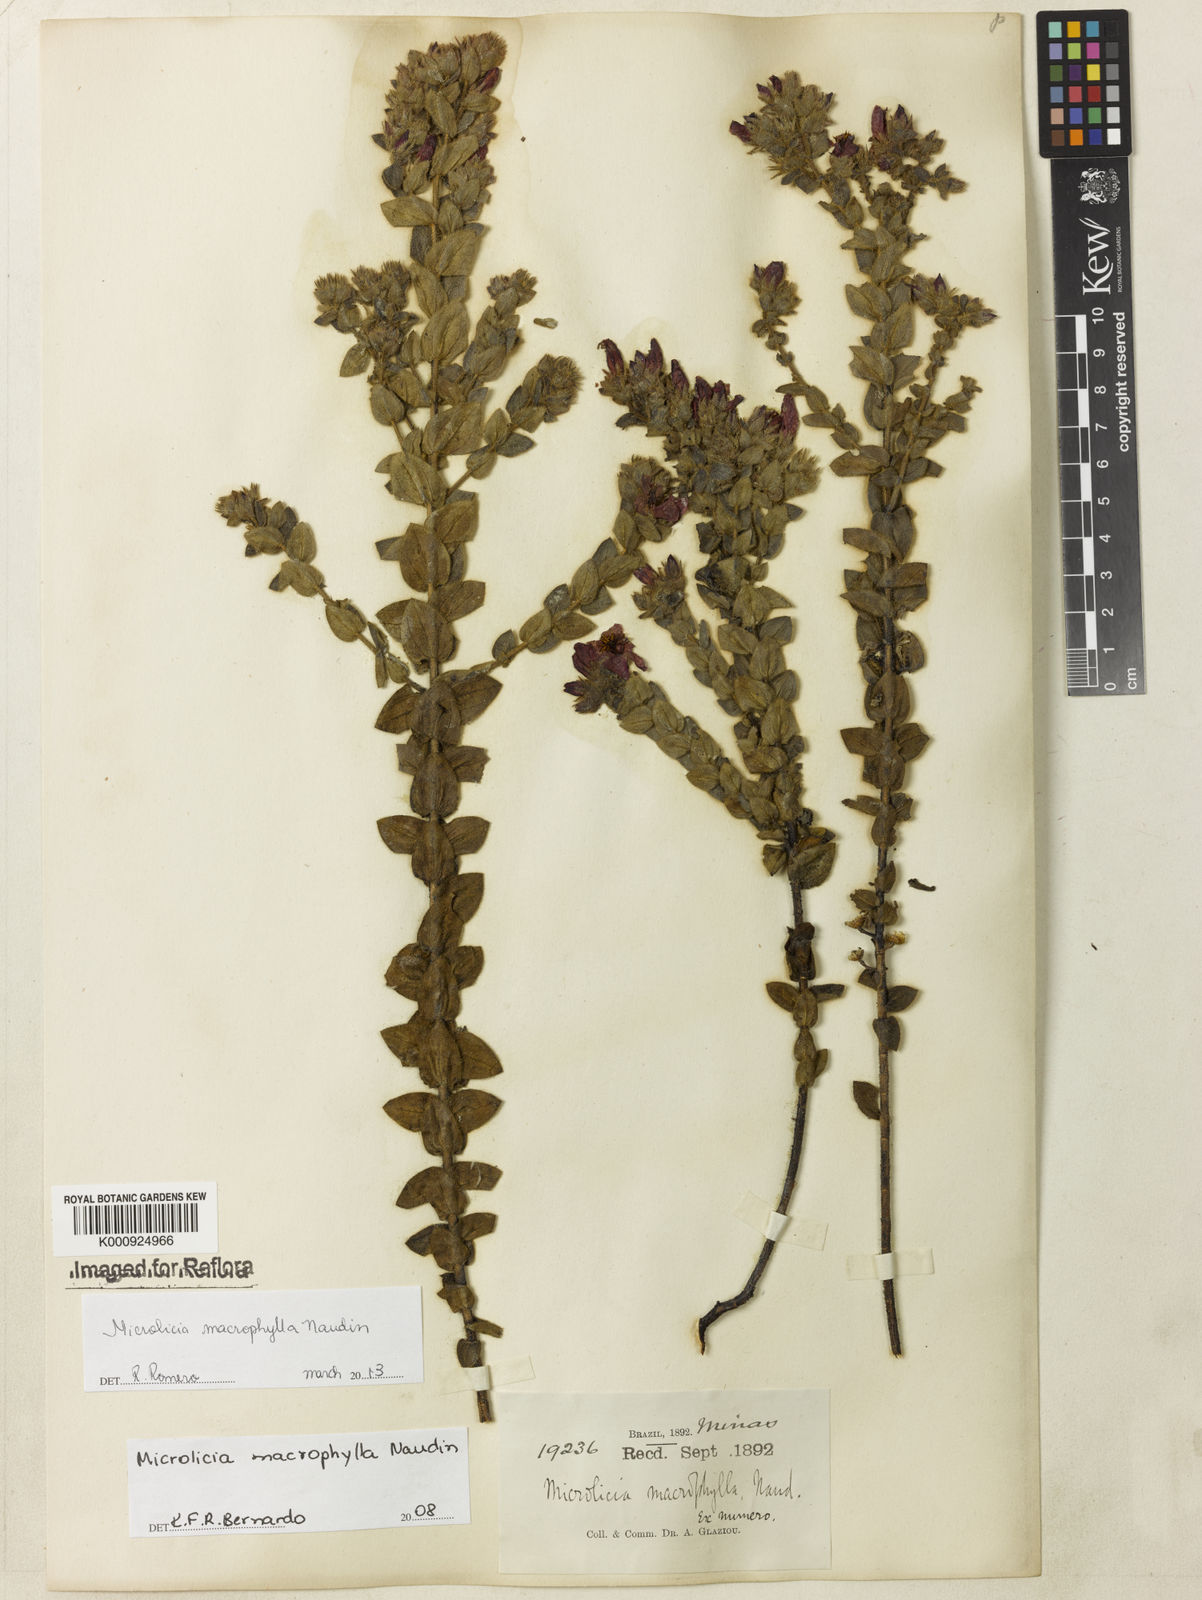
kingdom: Plantae
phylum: Tracheophyta
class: Magnoliopsida
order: Myrtales
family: Melastomataceae
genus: Microlicia
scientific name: Microlicia macrophylla
